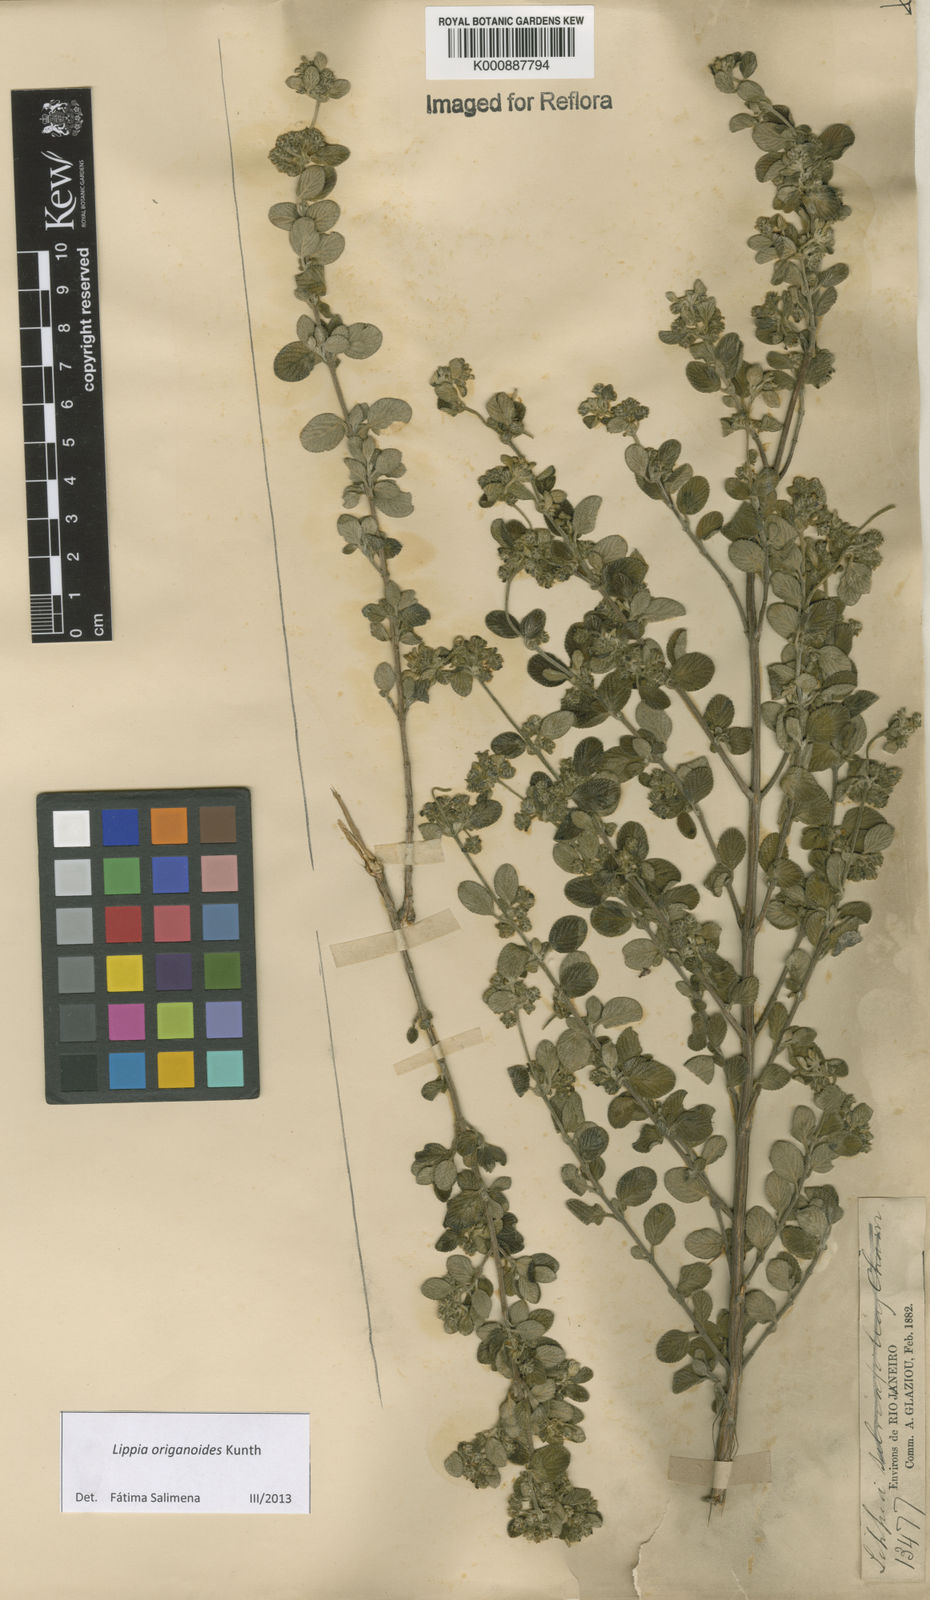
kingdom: Plantae
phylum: Tracheophyta
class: Magnoliopsida
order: Lamiales
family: Verbenaceae
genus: Lippia
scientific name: Lippia origanoides
